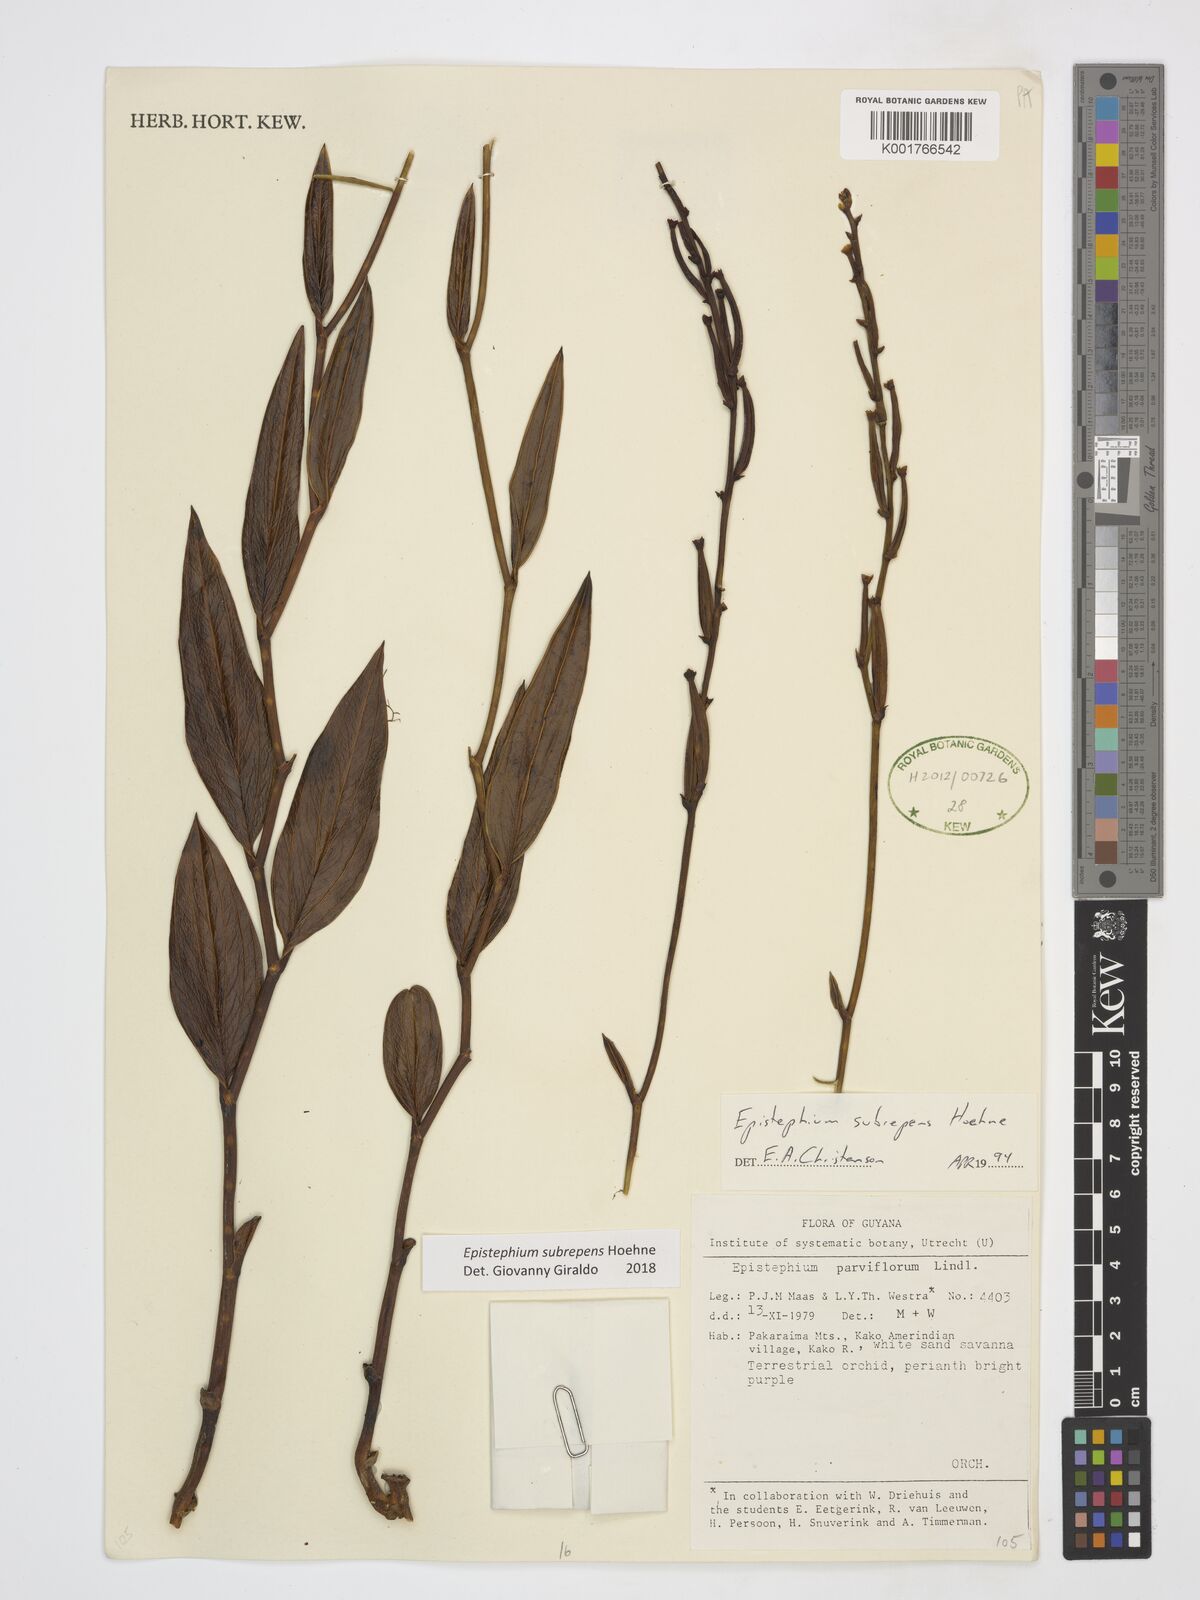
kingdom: Plantae
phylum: Tracheophyta
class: Liliopsida
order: Asparagales
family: Orchidaceae
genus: Epistephium
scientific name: Epistephium subrepens
